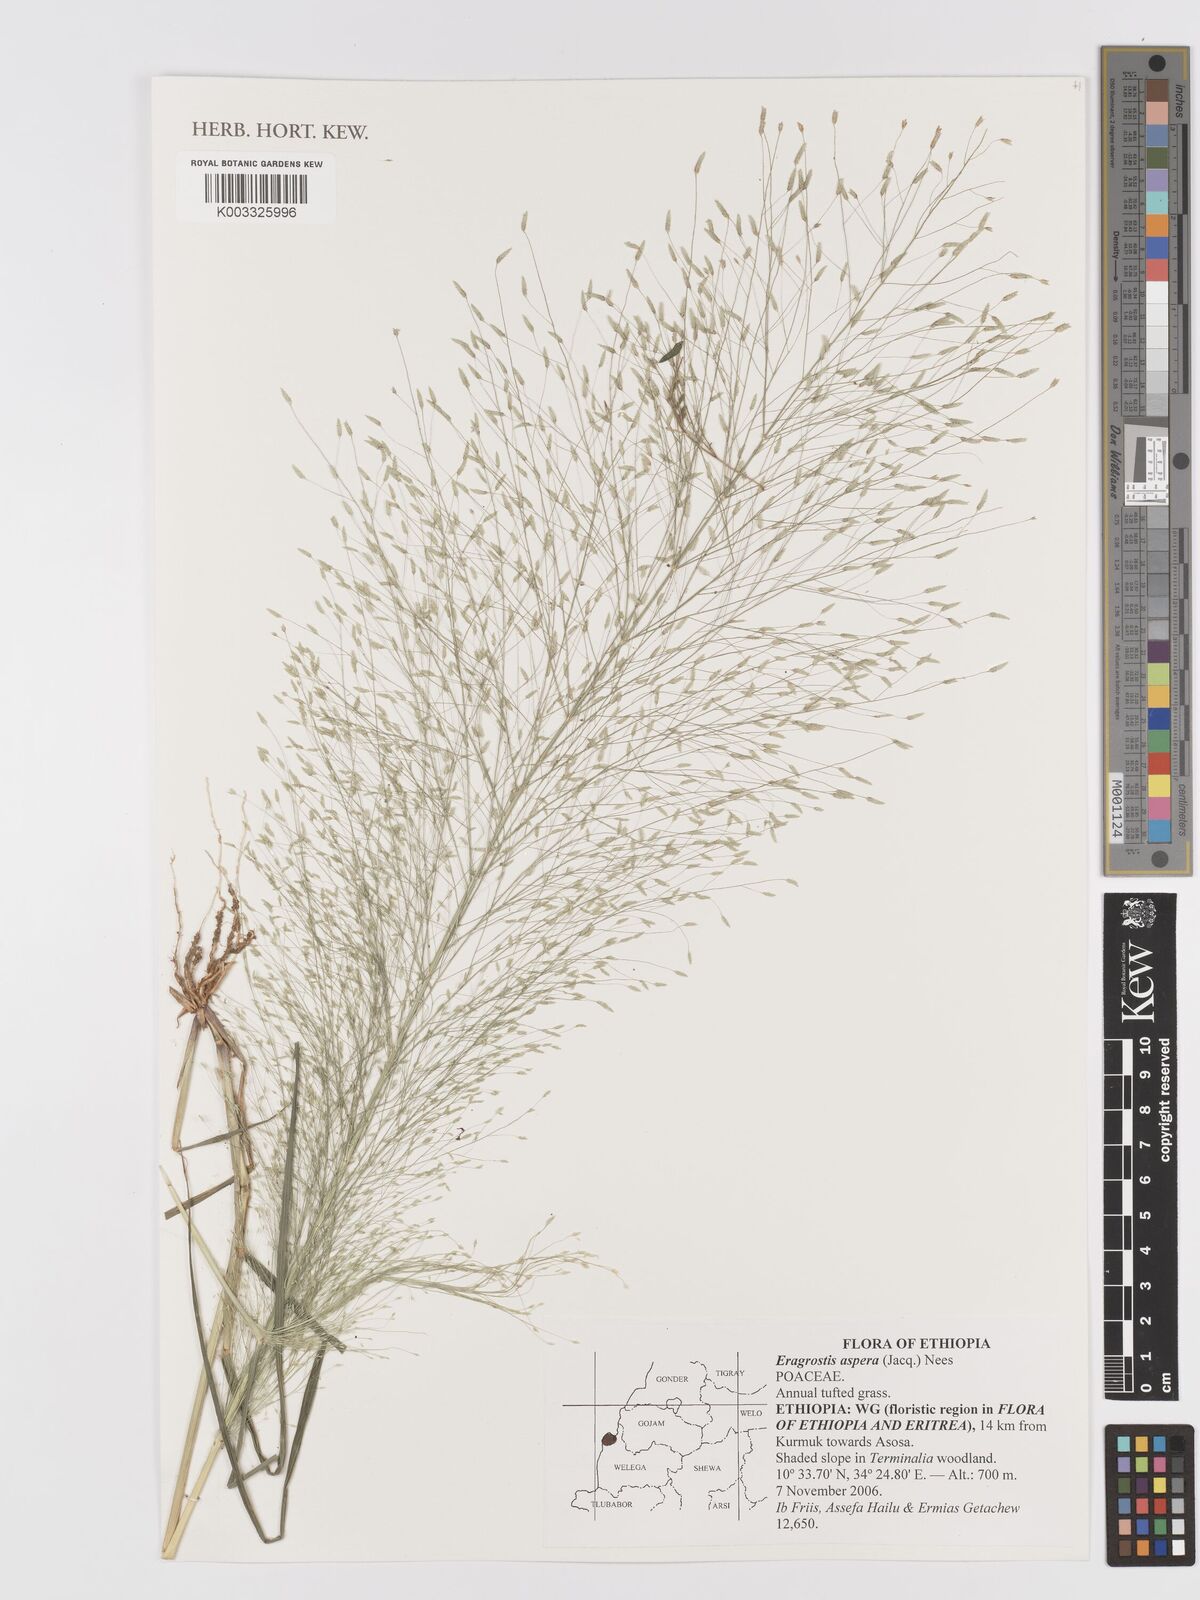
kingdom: Plantae
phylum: Tracheophyta
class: Liliopsida
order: Poales
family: Poaceae
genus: Eragrostis
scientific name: Eragrostis aspera
